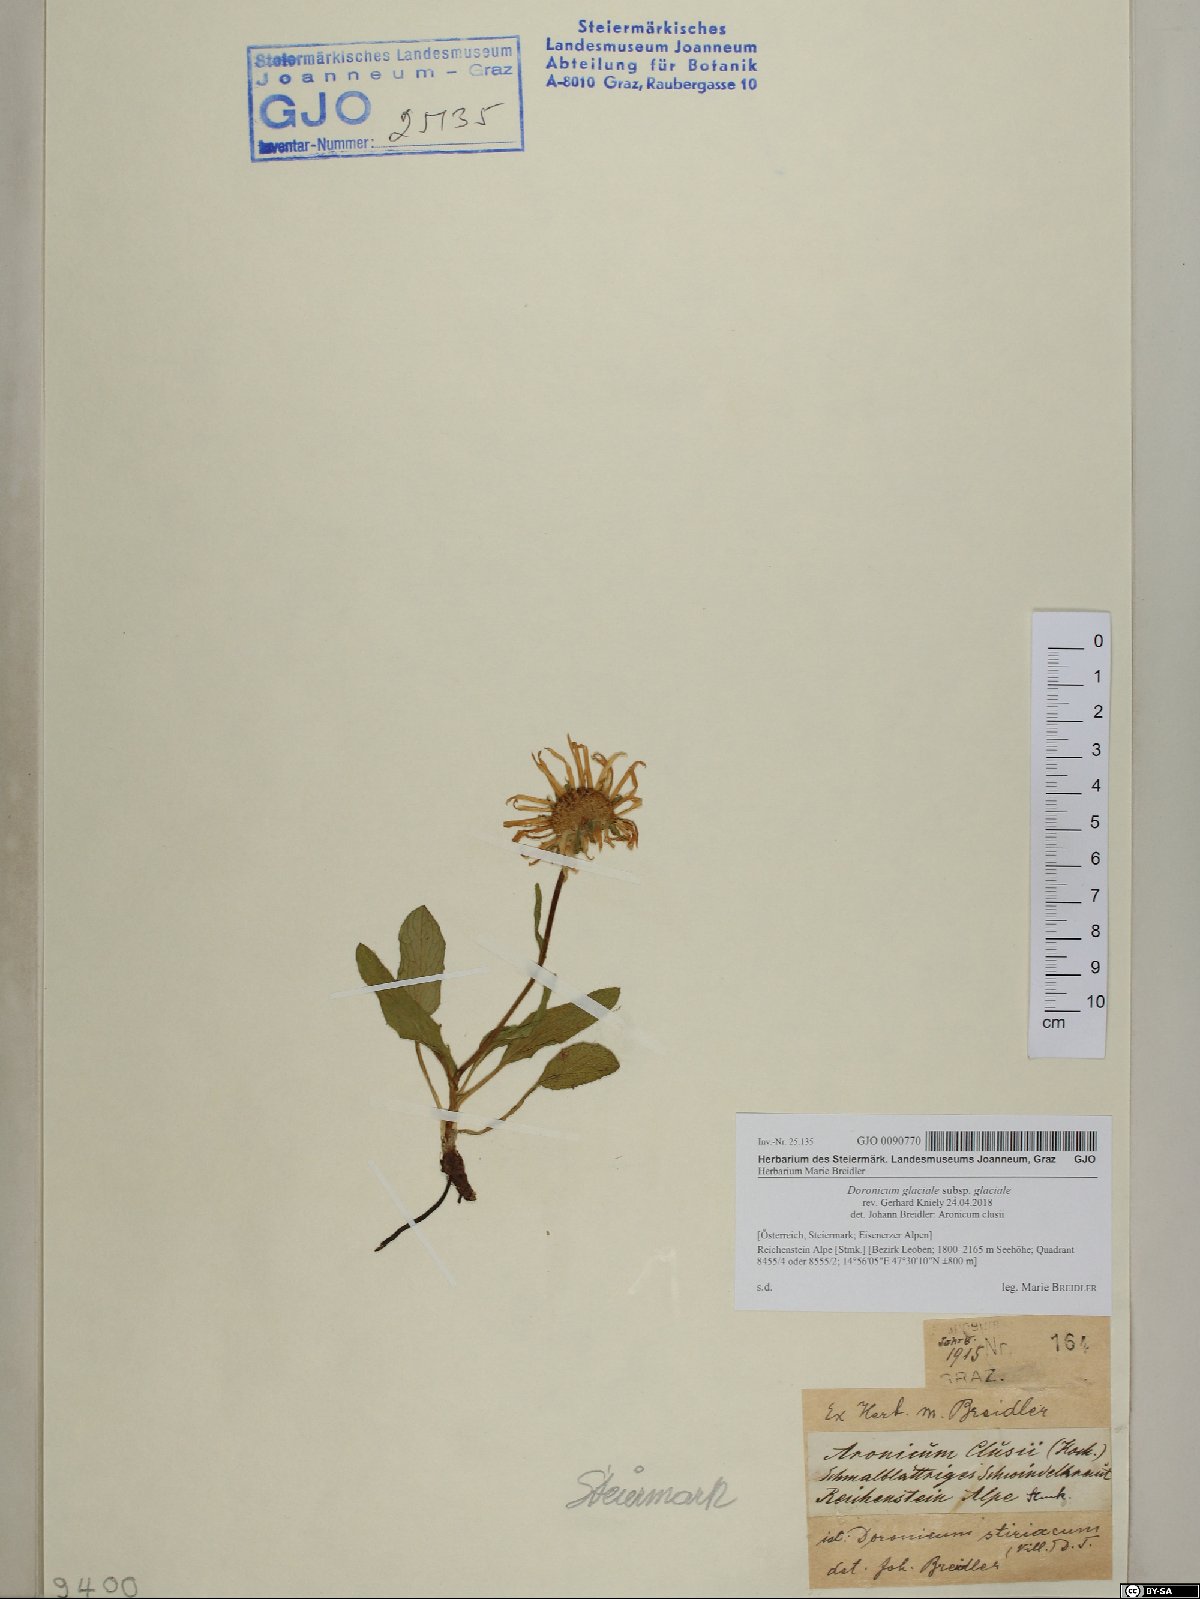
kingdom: Plantae
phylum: Tracheophyta
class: Magnoliopsida
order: Asterales
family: Asteraceae
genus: Doronicum
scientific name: Doronicum glaciale
